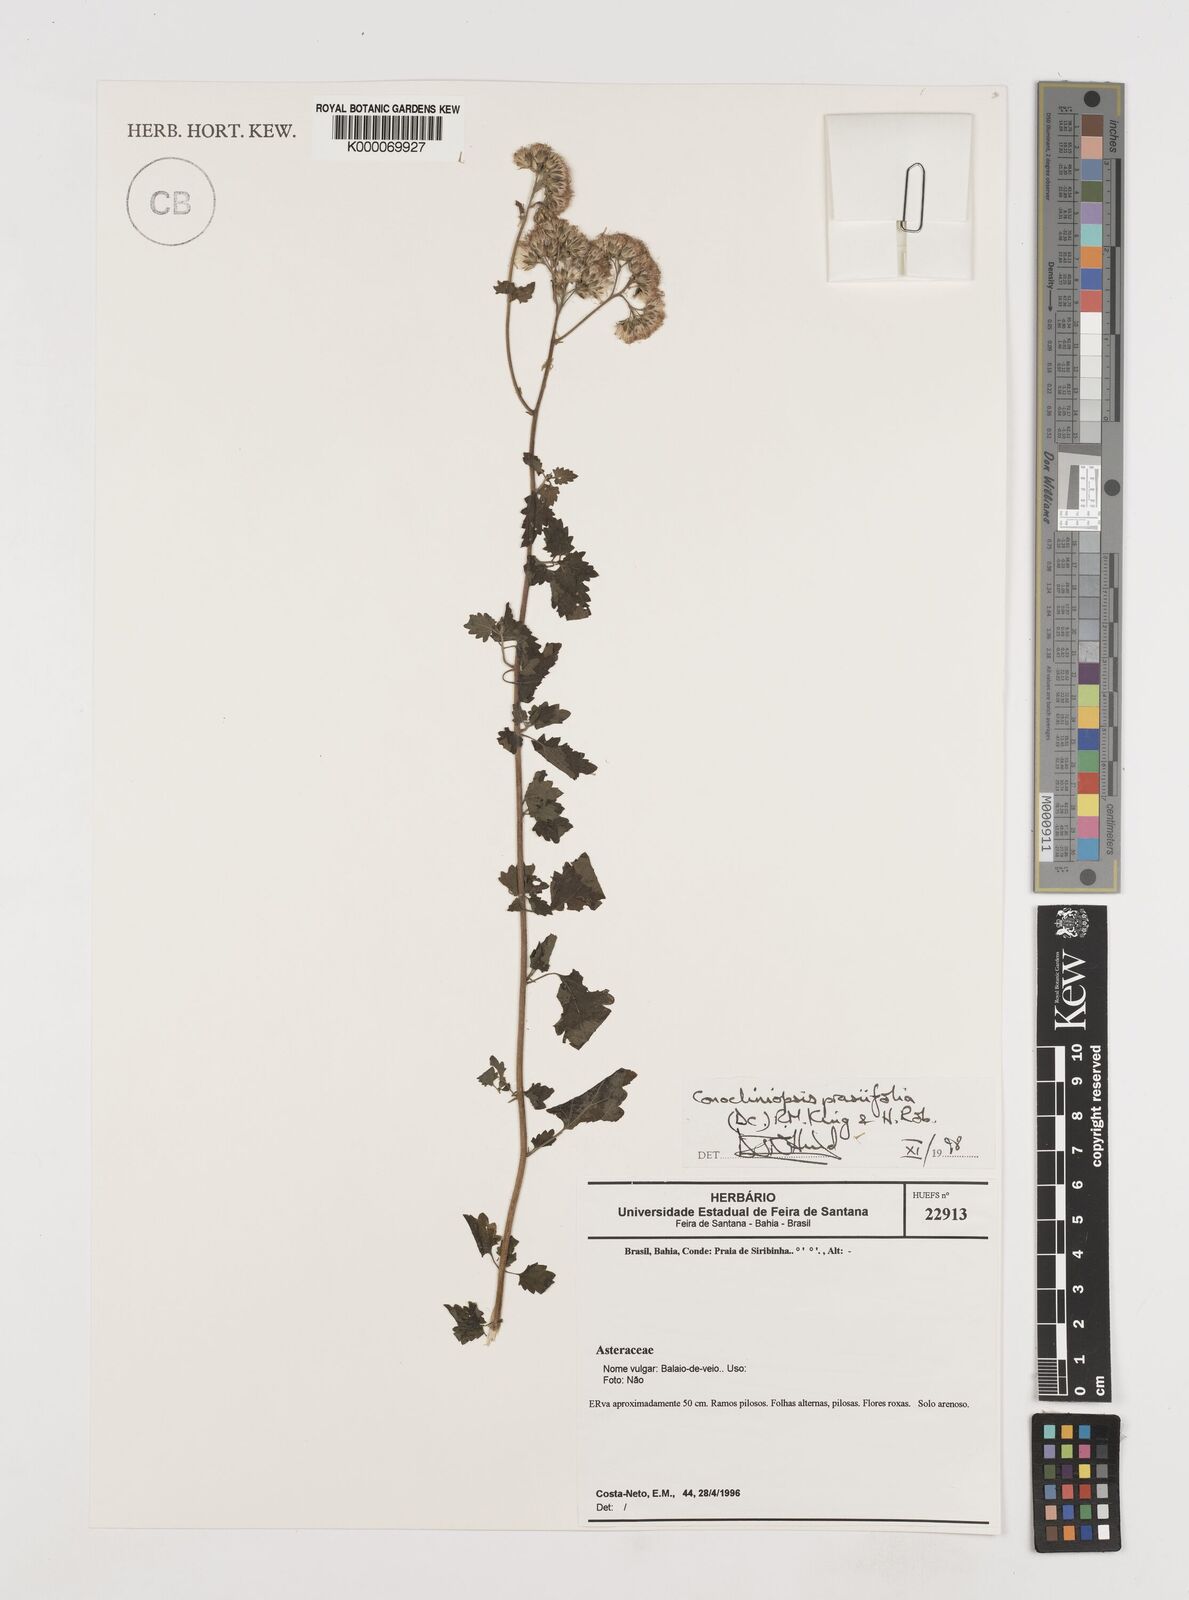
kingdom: Plantae
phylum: Tracheophyta
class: Magnoliopsida
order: Asterales
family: Asteraceae
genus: Conocliniopsis
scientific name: Conocliniopsis grossedentata
